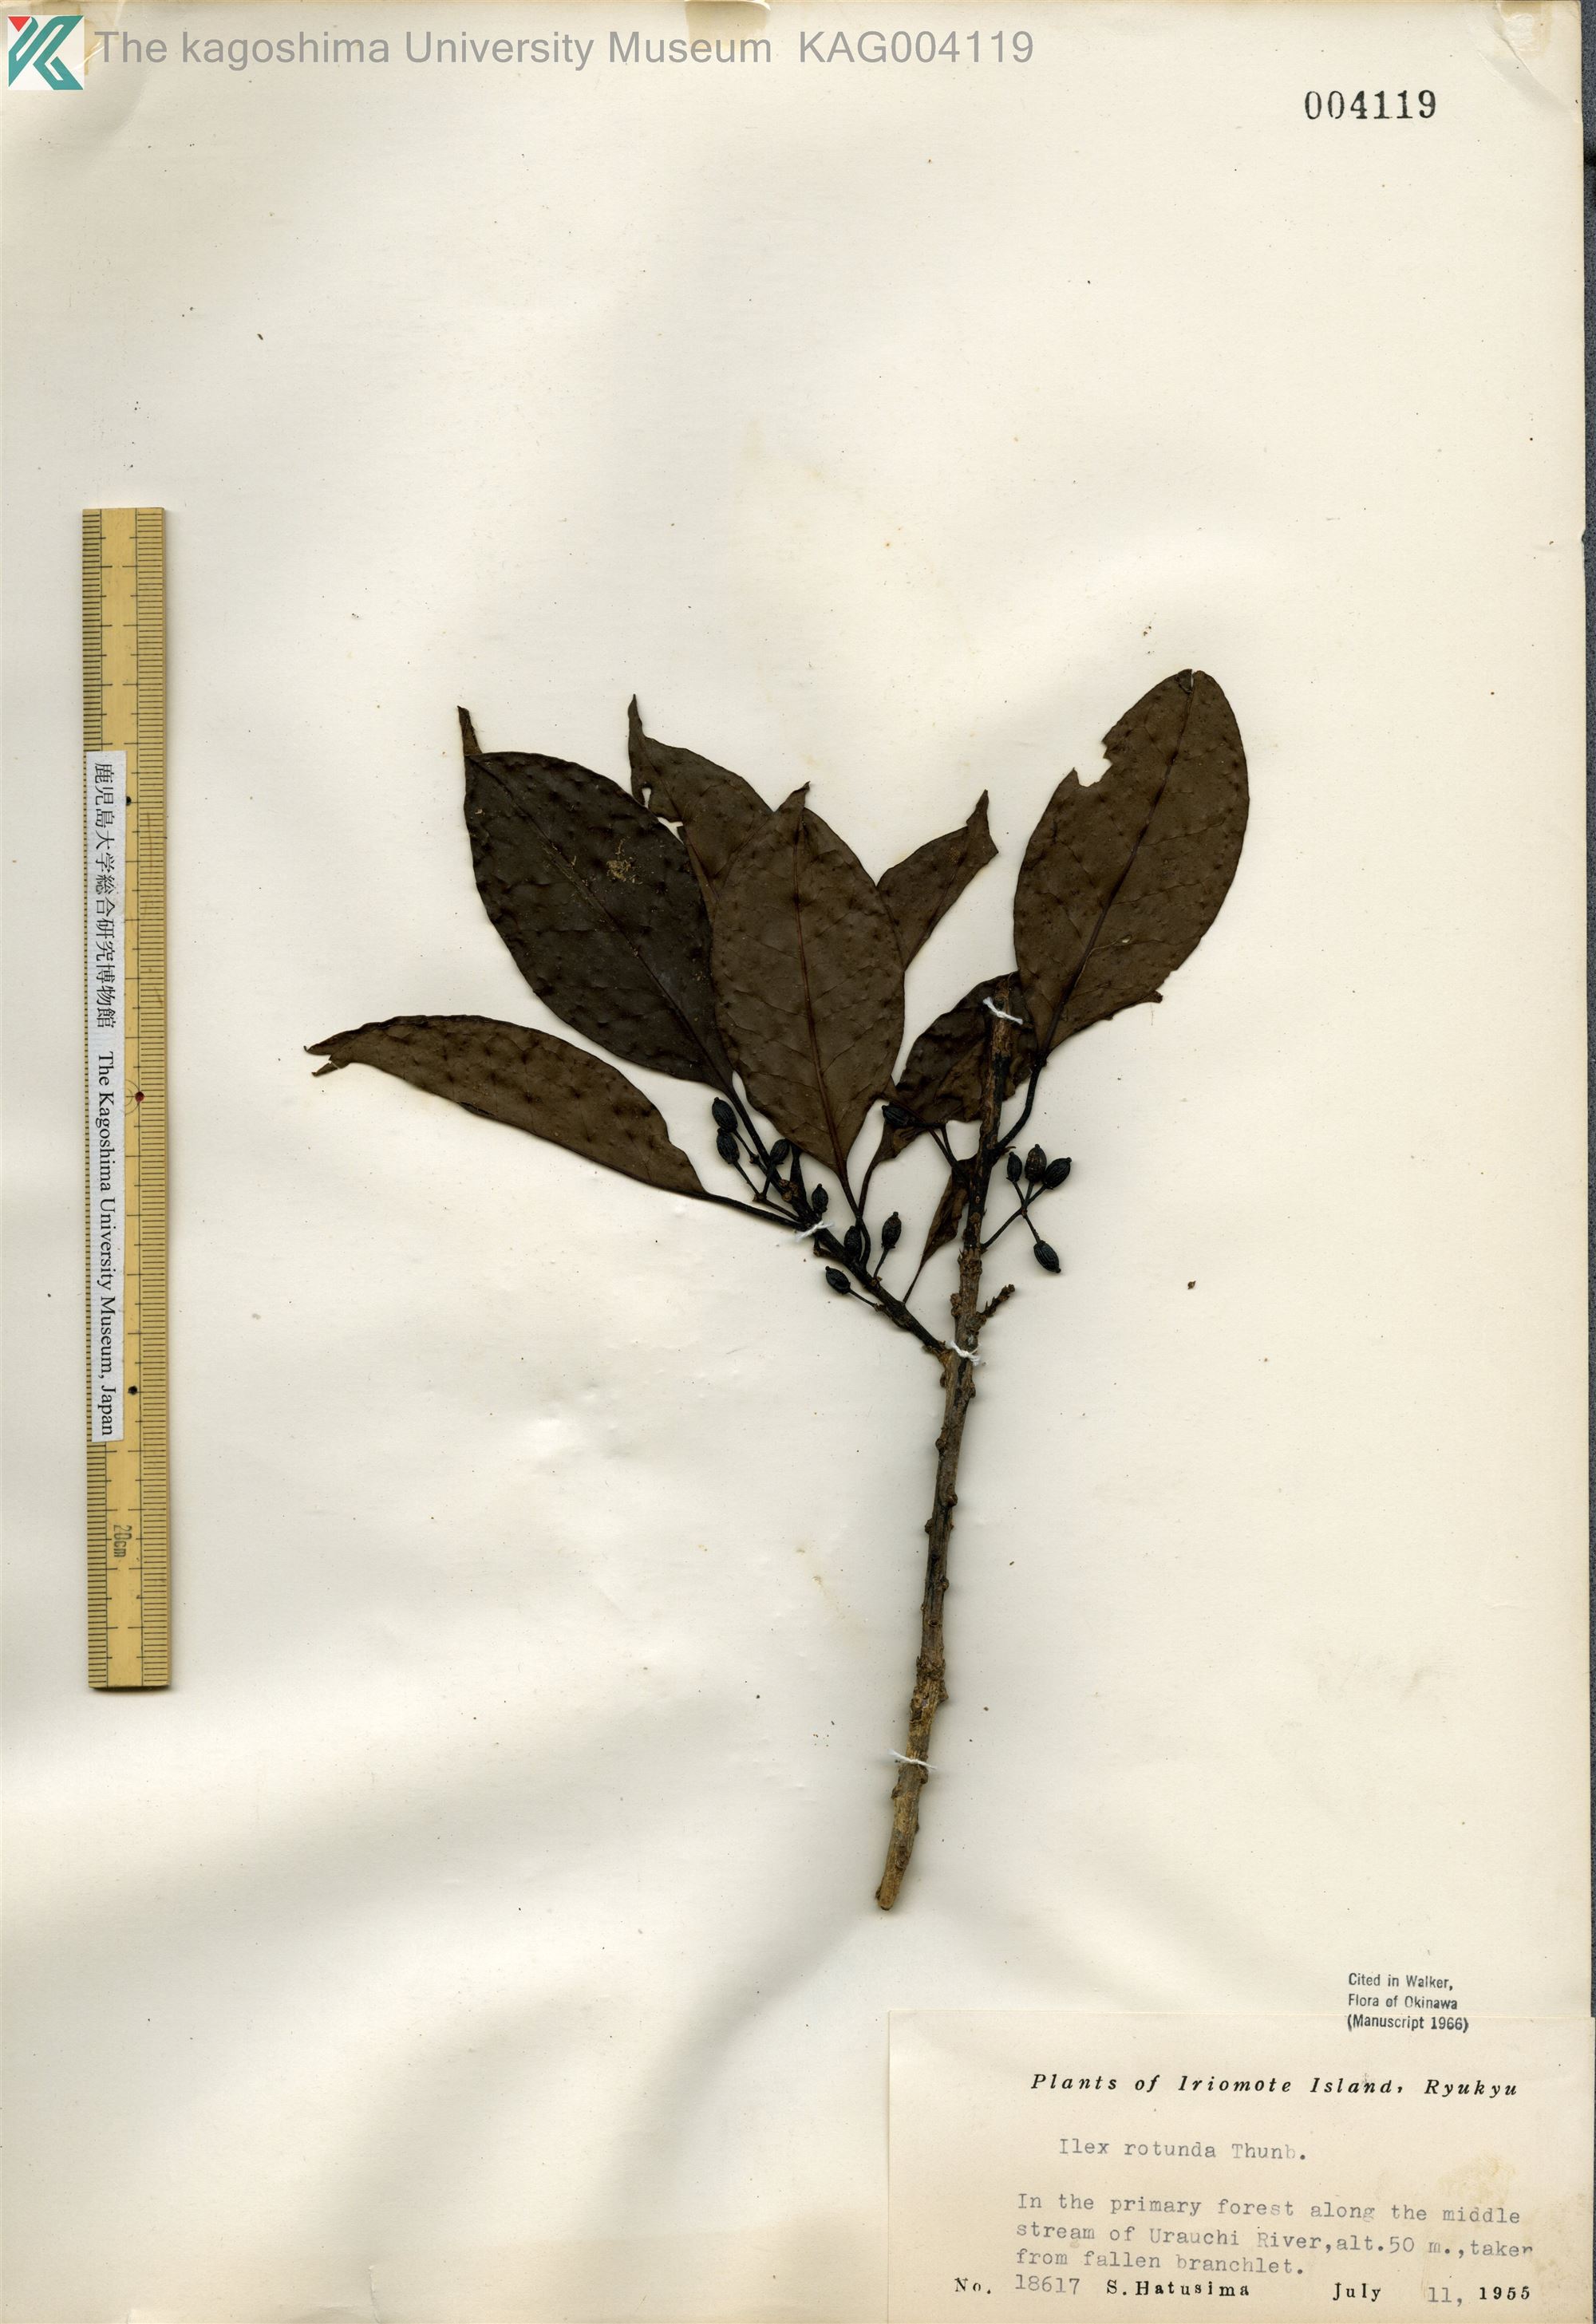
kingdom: Plantae
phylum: Tracheophyta
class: Magnoliopsida
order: Aquifoliales
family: Aquifoliaceae
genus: Ilex
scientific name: Ilex rotunda
